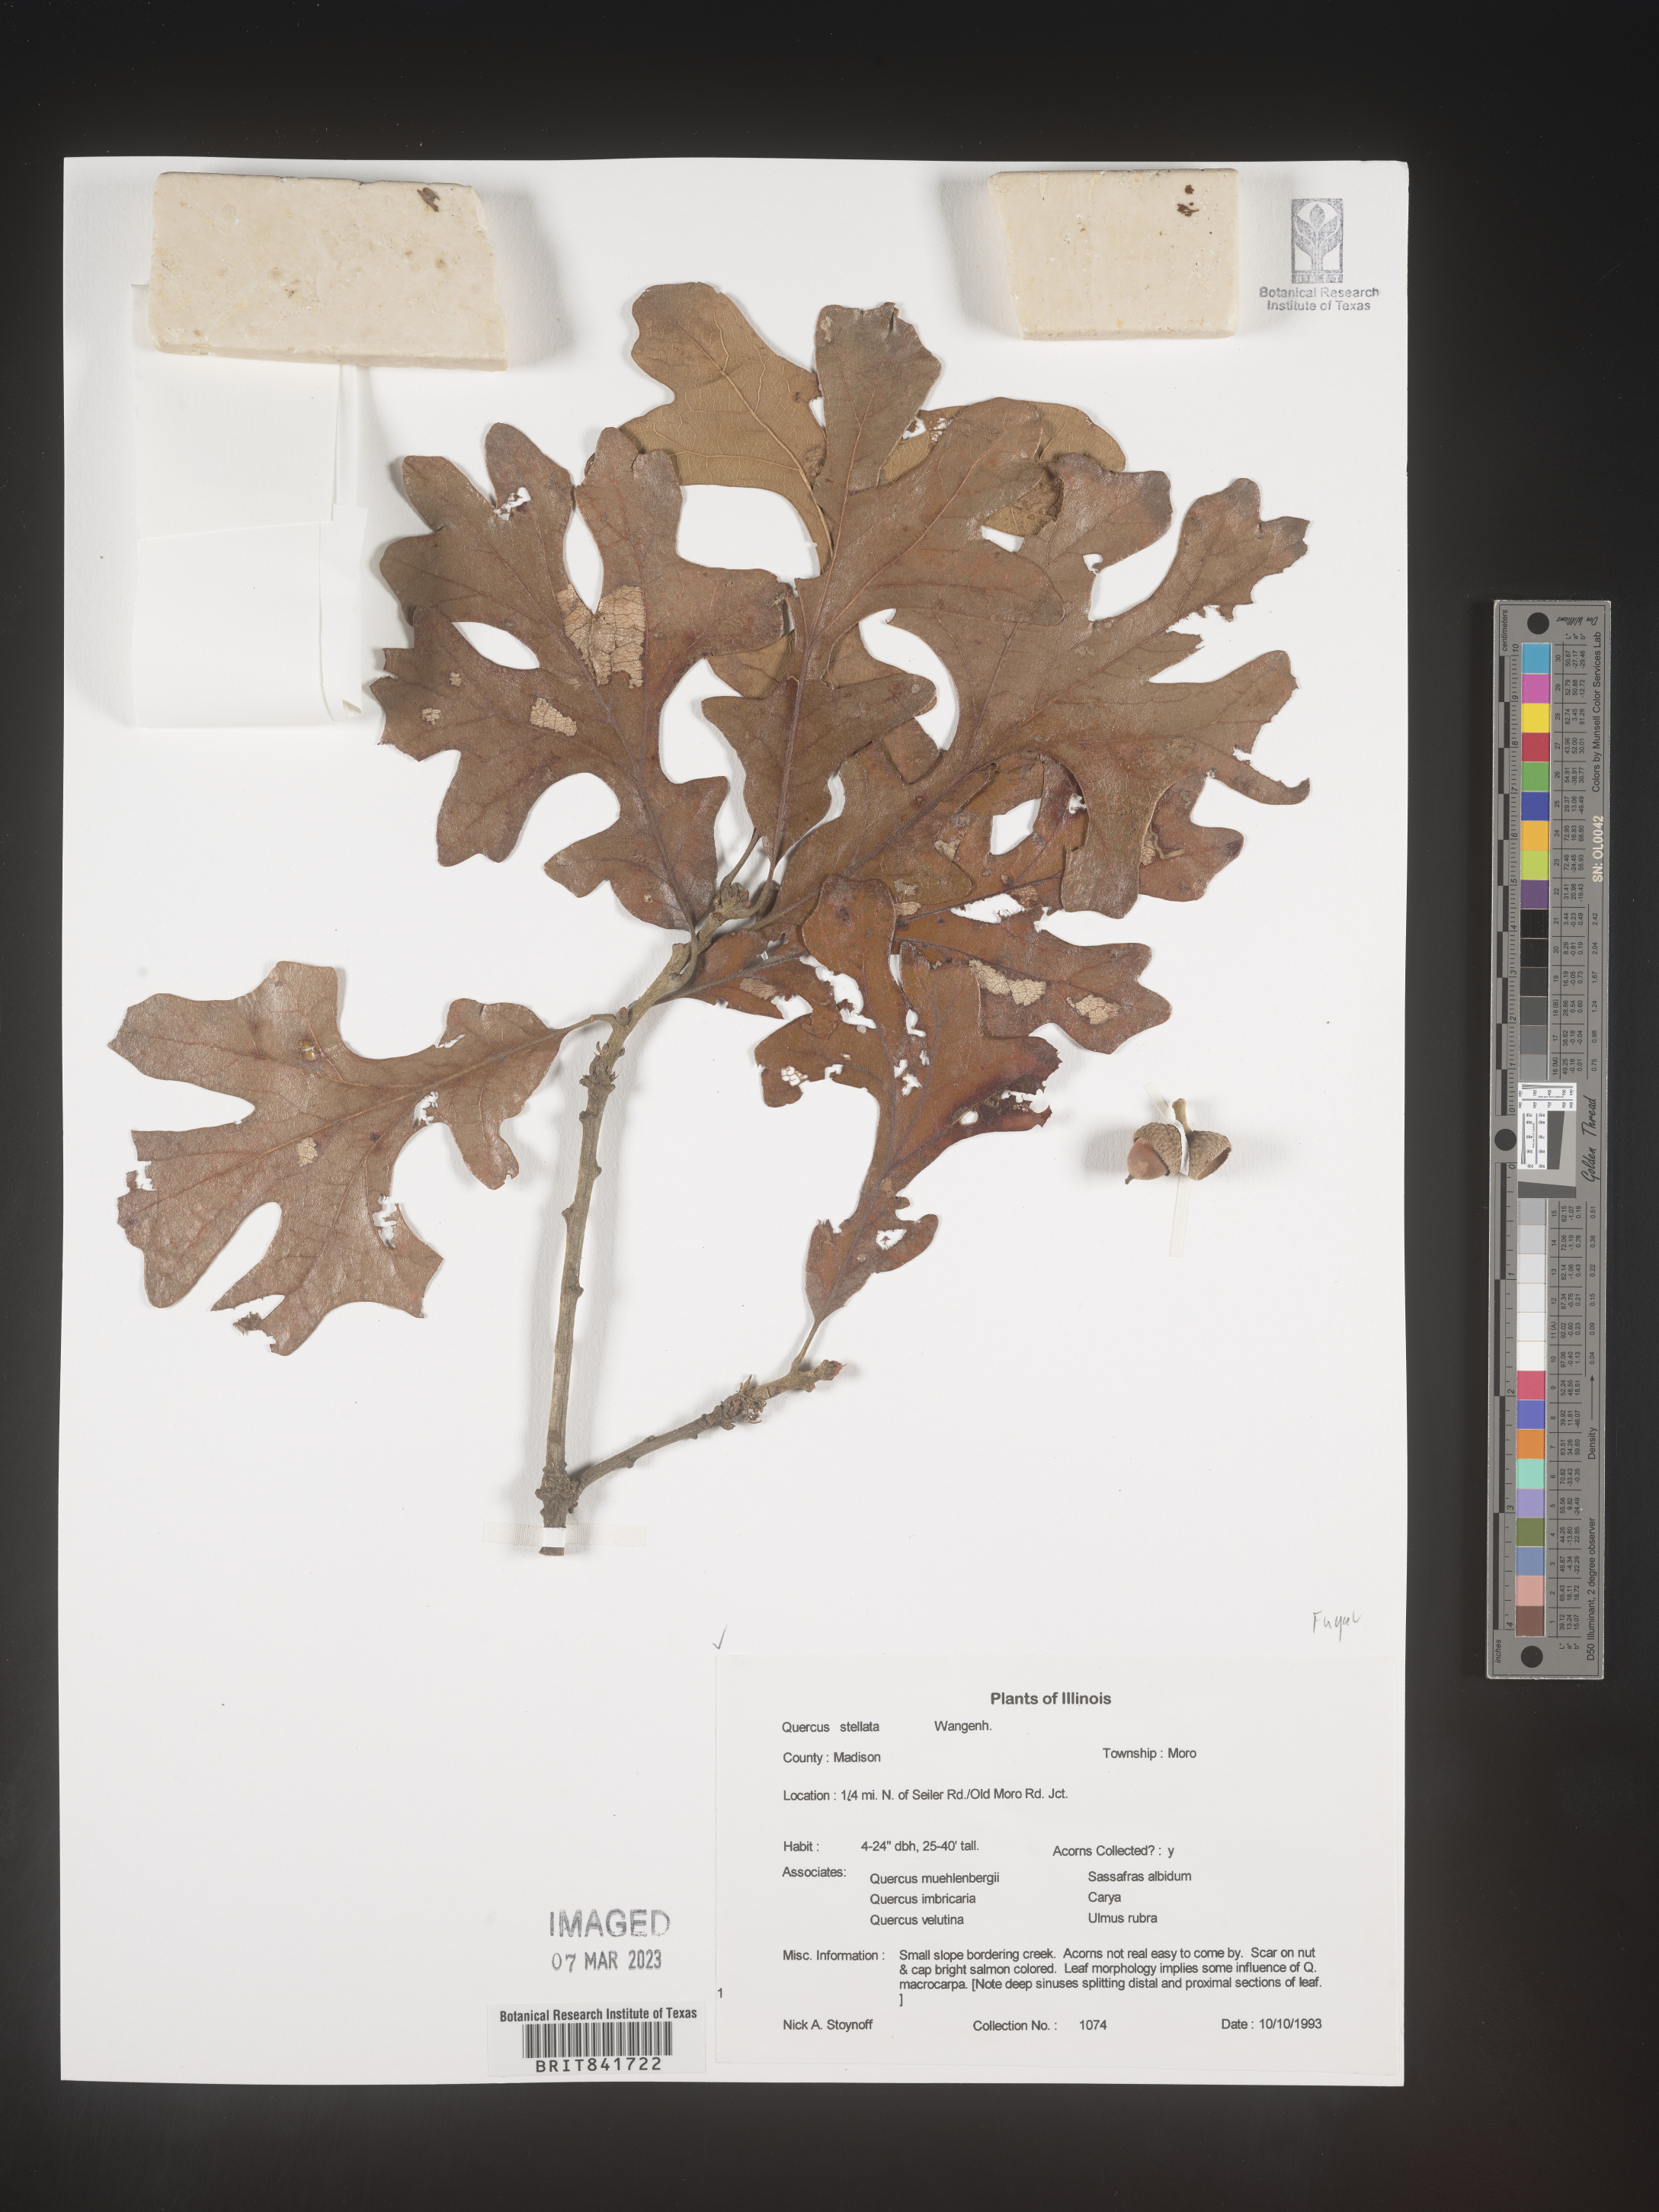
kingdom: Plantae
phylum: Tracheophyta
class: Magnoliopsida
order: Fagales
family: Fagaceae
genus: Quercus
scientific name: Quercus stellata
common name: Post oak
